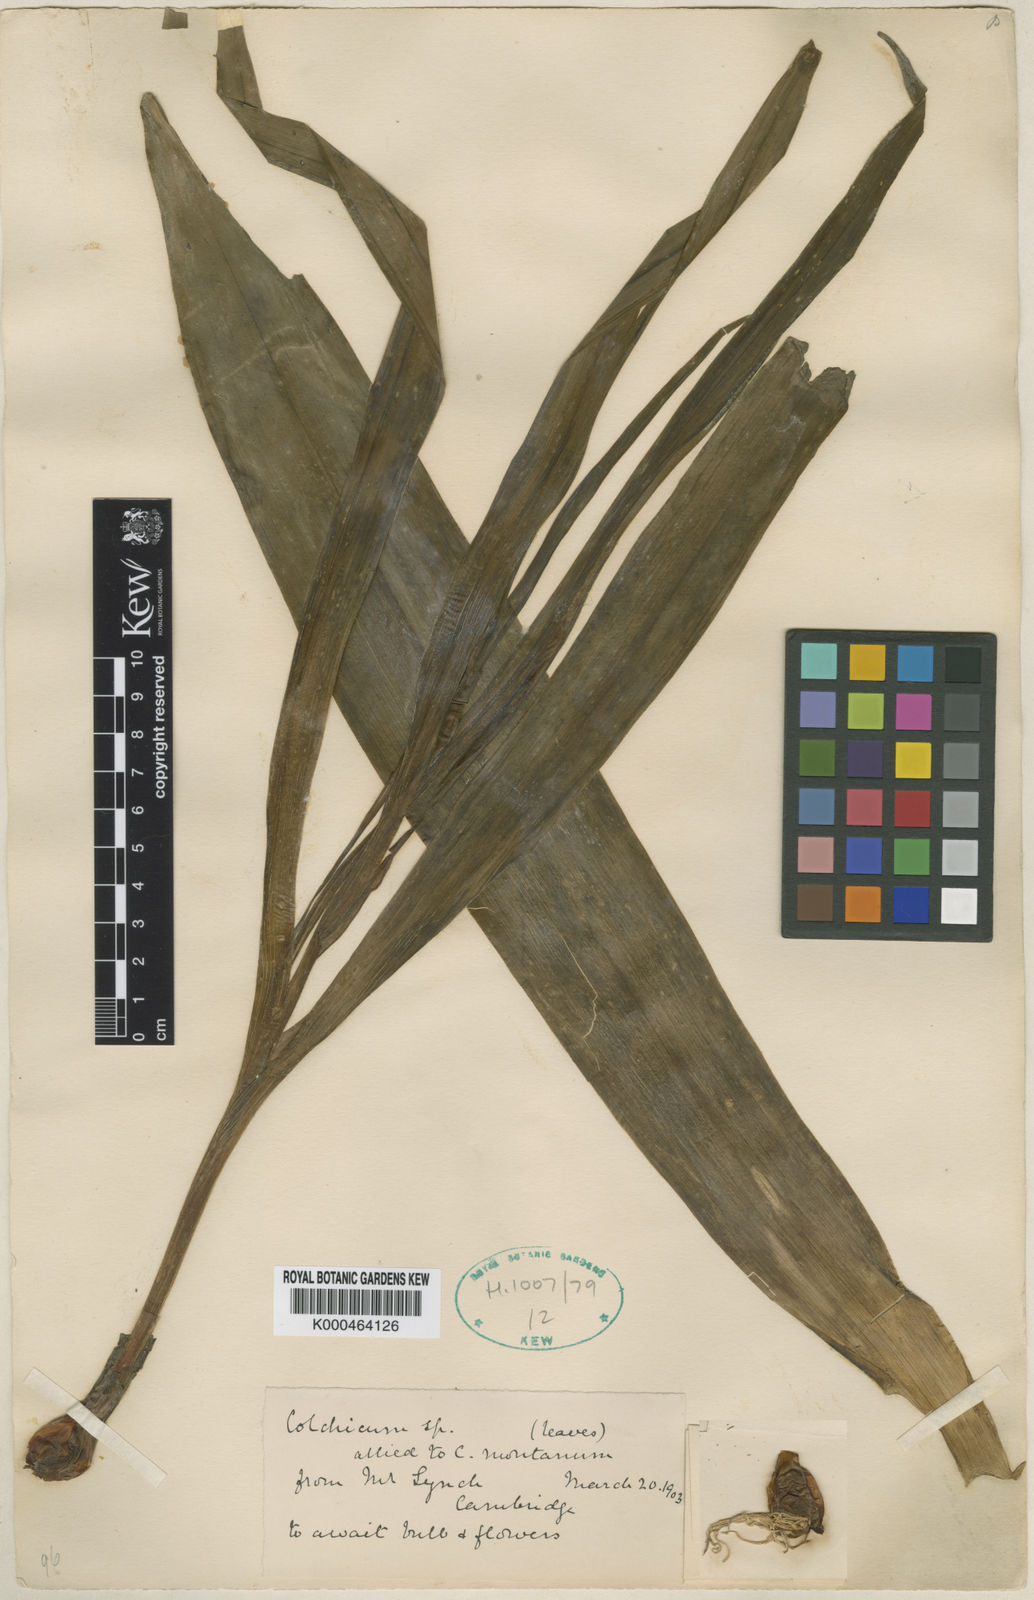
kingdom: Plantae
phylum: Tracheophyta
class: Liliopsida
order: Liliales
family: Colchicaceae
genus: Colchicum
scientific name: Colchicum haynaldii
